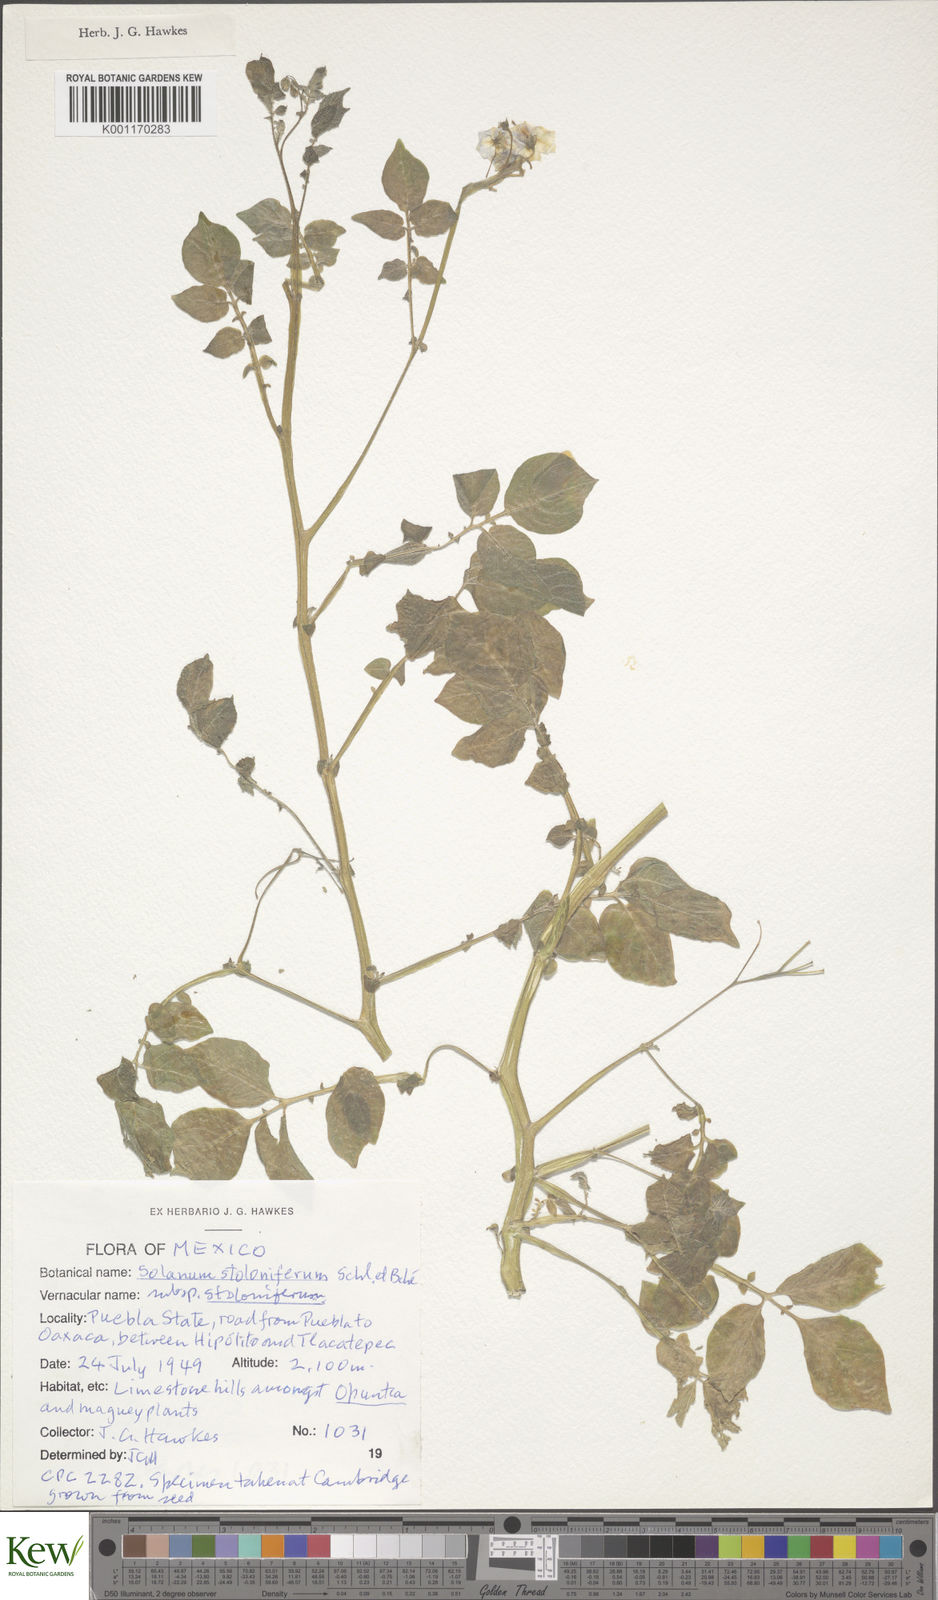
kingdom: Plantae
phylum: Tracheophyta
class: Magnoliopsida
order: Solanales
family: Solanaceae
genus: Solanum
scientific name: Solanum stoloniferum
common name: Fendler's nighshade
